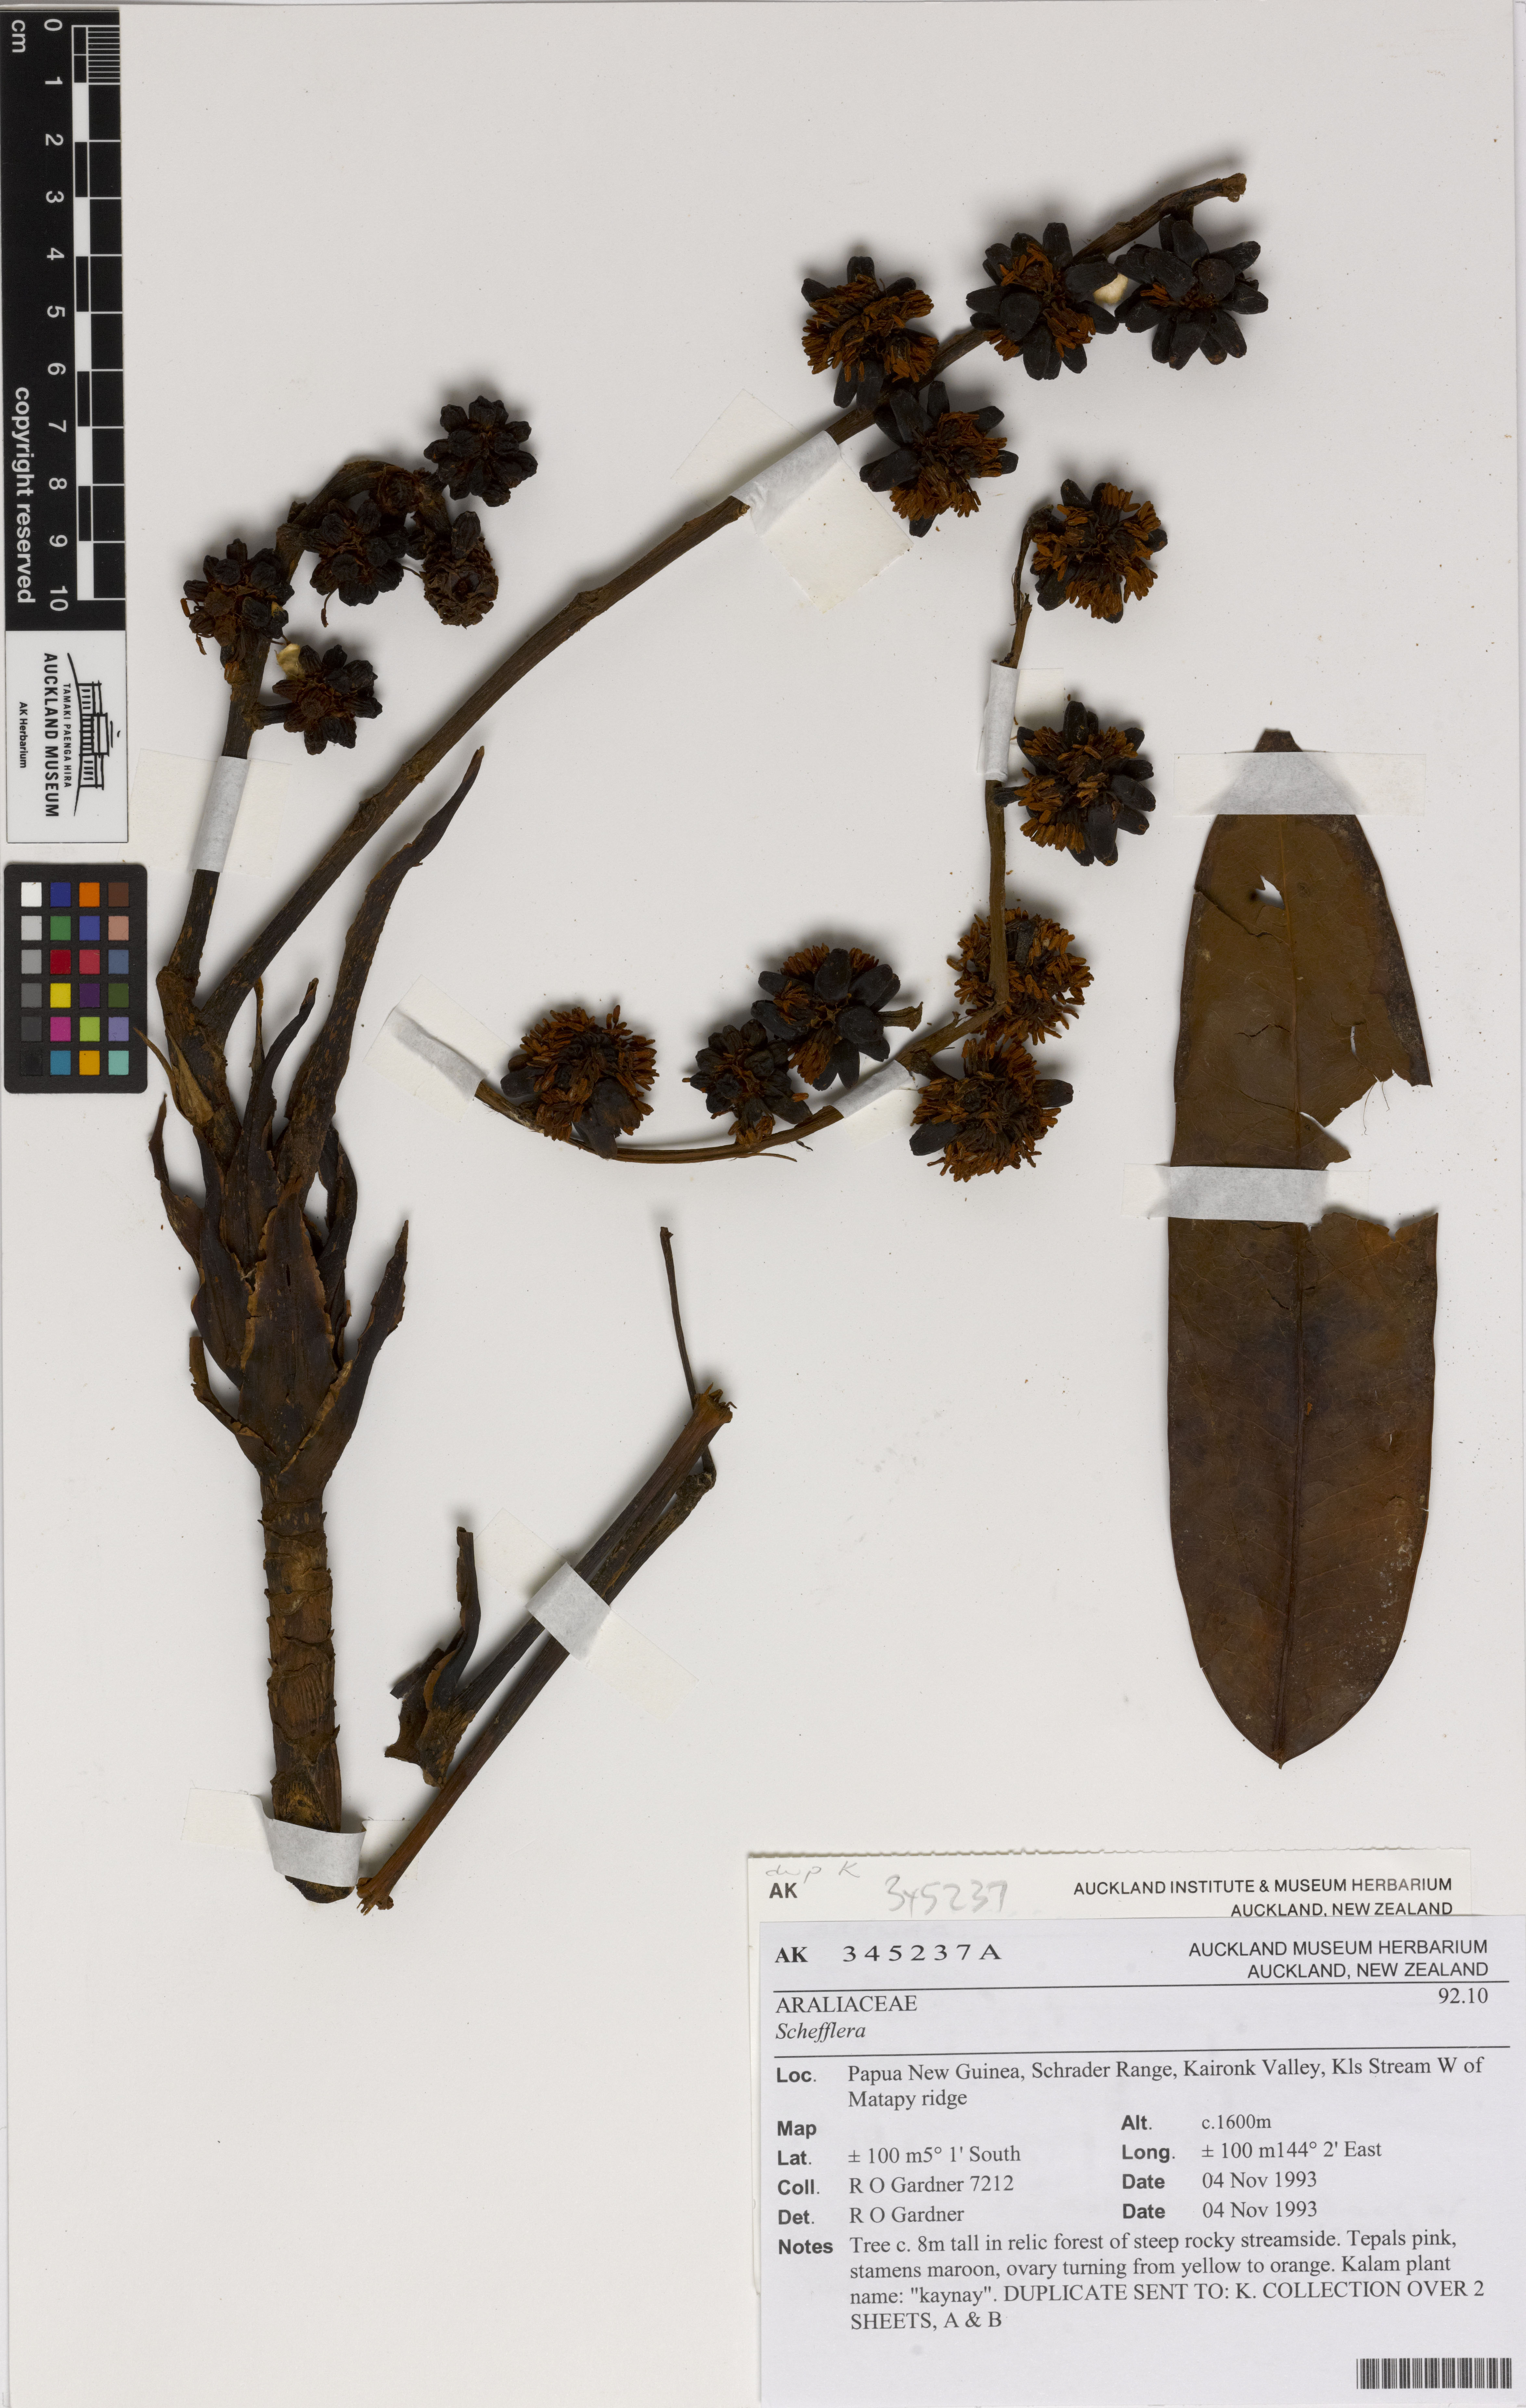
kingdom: Plantae
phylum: Tracheophyta
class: Magnoliopsida
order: Apiales
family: Araliaceae
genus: Schefflera
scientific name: Schefflera
